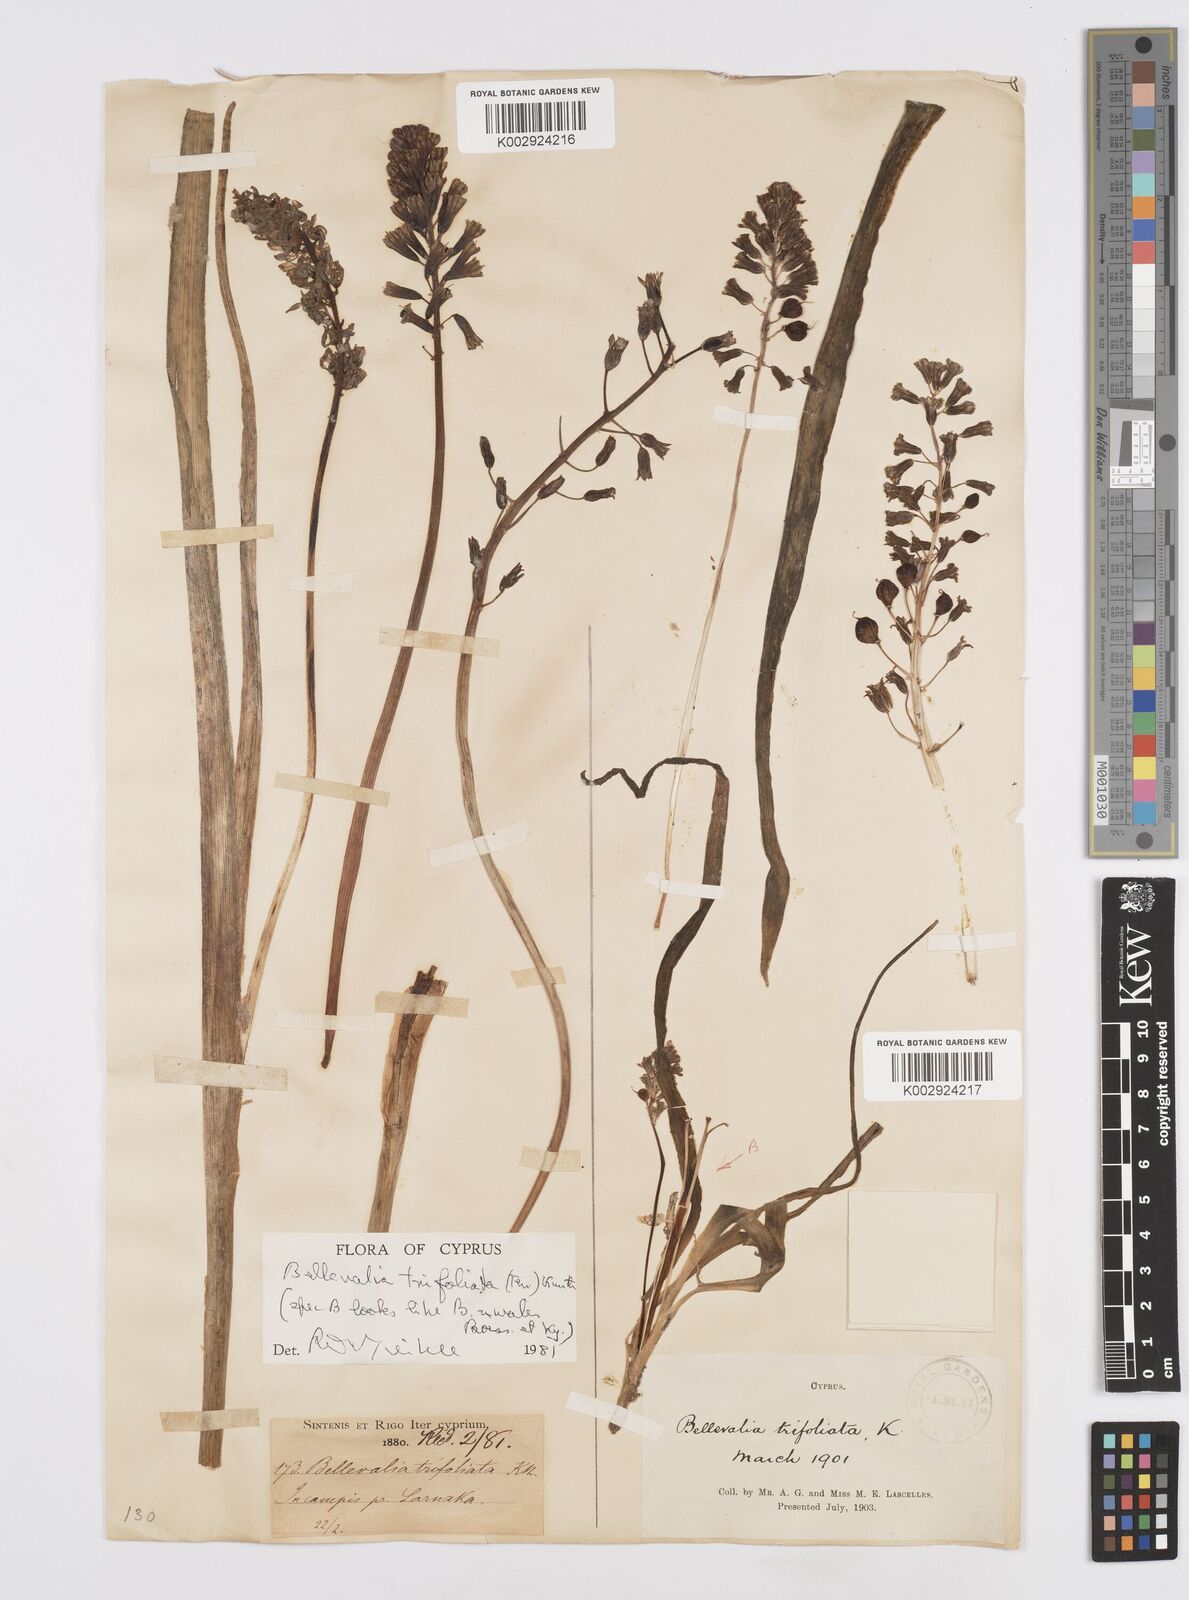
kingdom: Plantae
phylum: Tracheophyta
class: Liliopsida
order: Asparagales
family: Asparagaceae
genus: Bellevalia
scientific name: Bellevalia trifoliata
